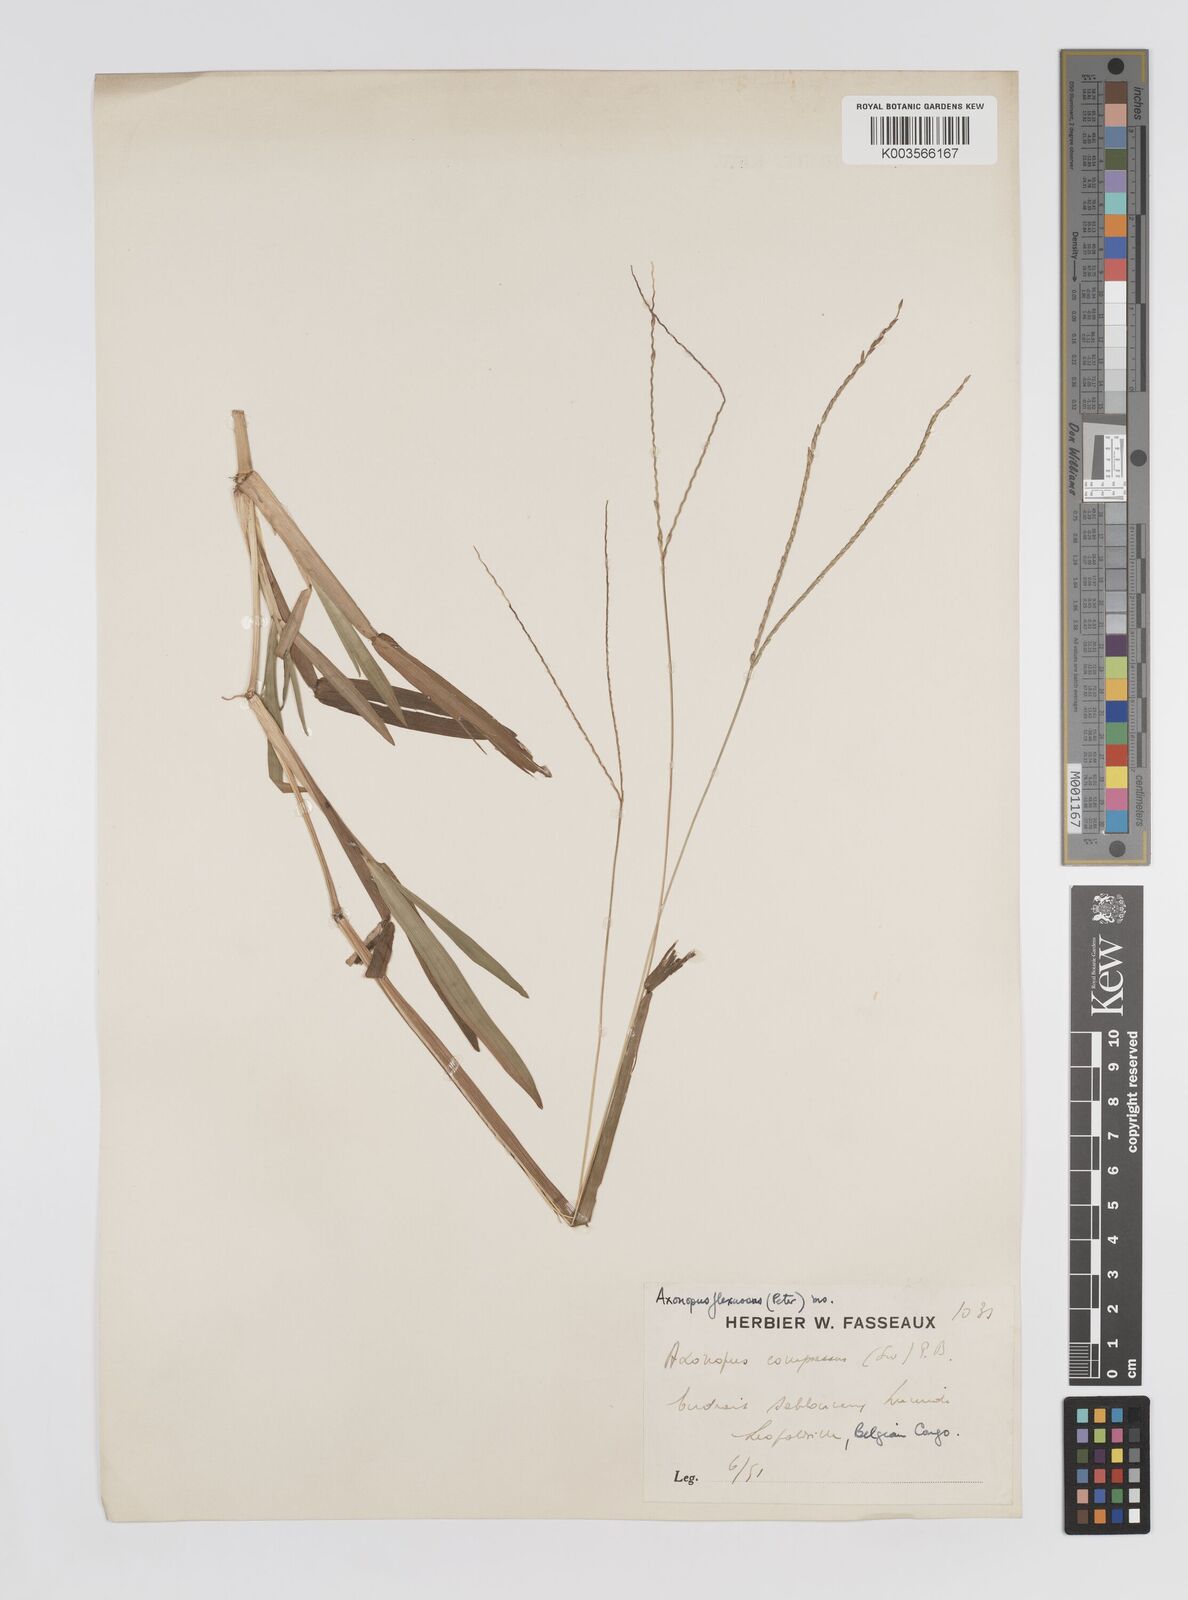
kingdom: Plantae
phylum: Tracheophyta
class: Liliopsida
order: Poales
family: Poaceae
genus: Axonopus
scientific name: Axonopus flexuosus
